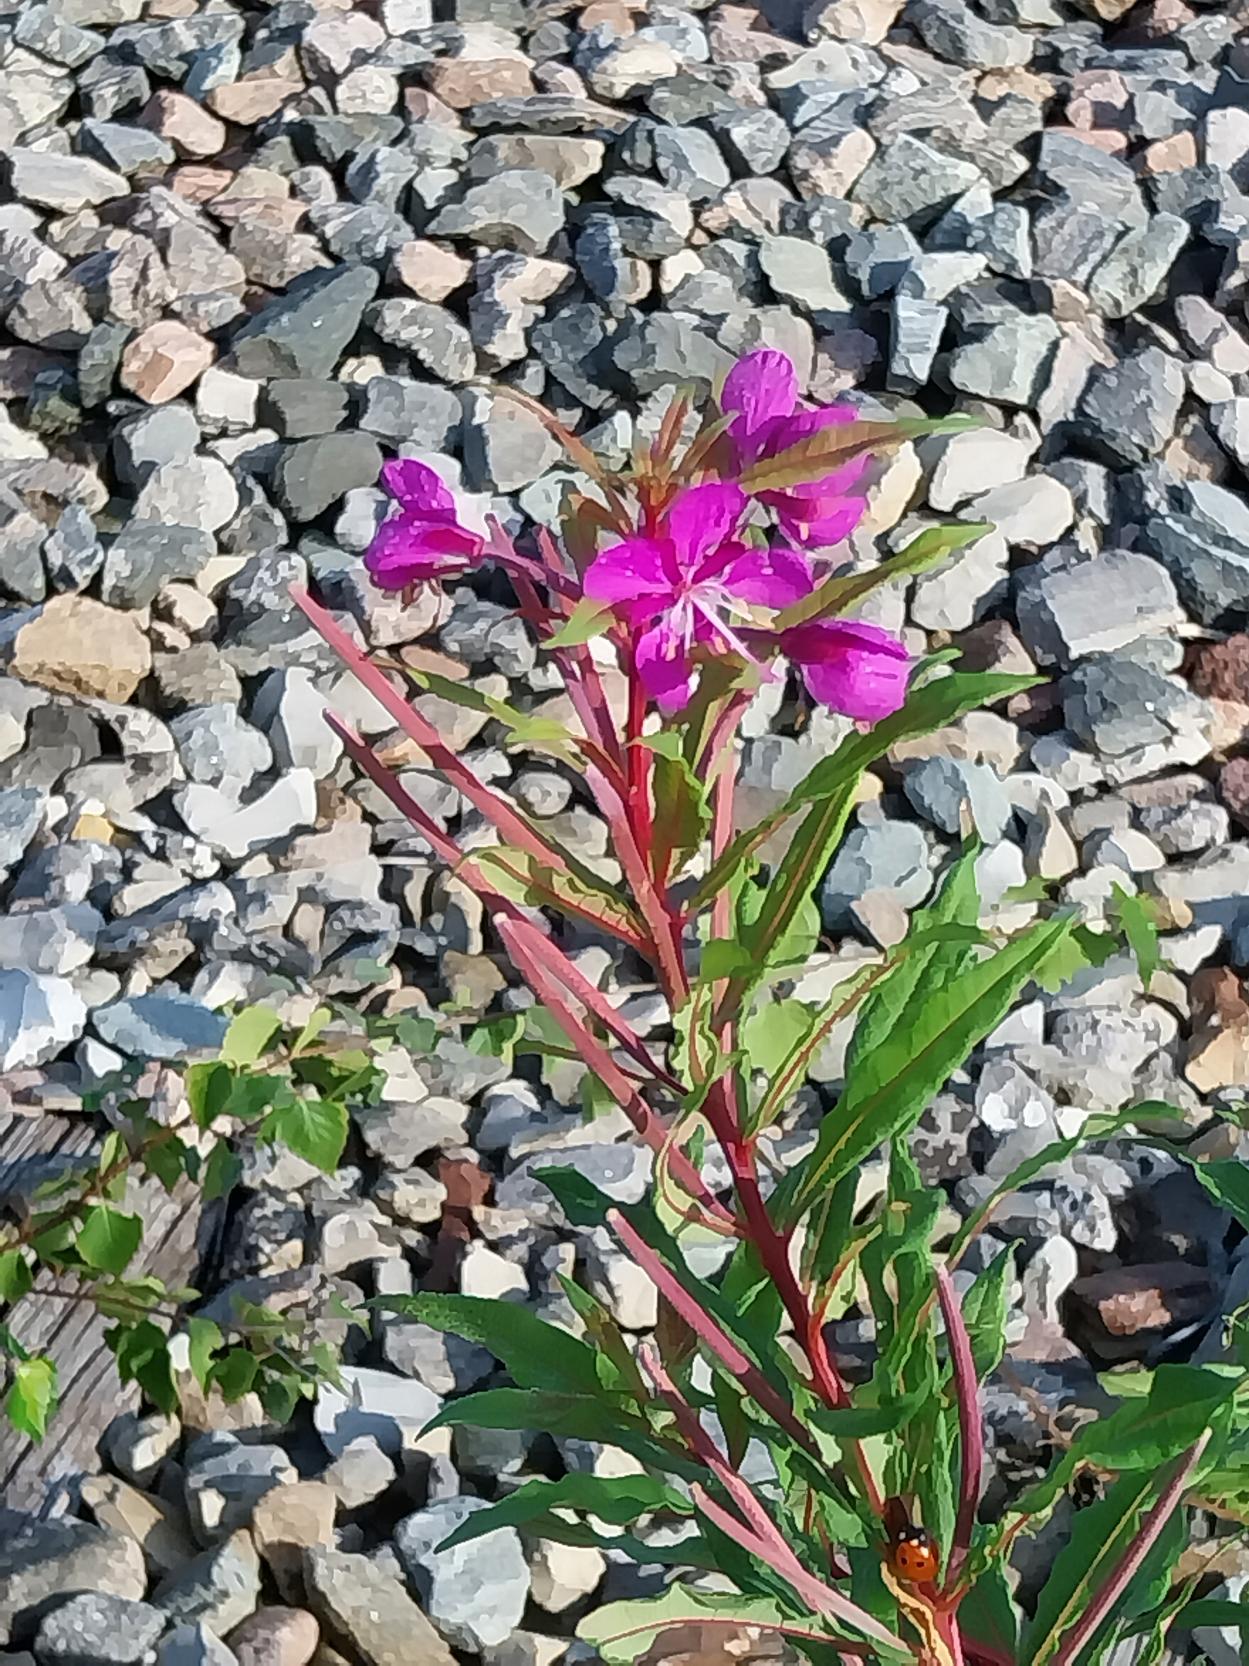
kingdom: Plantae
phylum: Tracheophyta
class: Magnoliopsida
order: Myrtales
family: Onagraceae
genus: Chamaenerion
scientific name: Chamaenerion angustifolium
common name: Gederams
